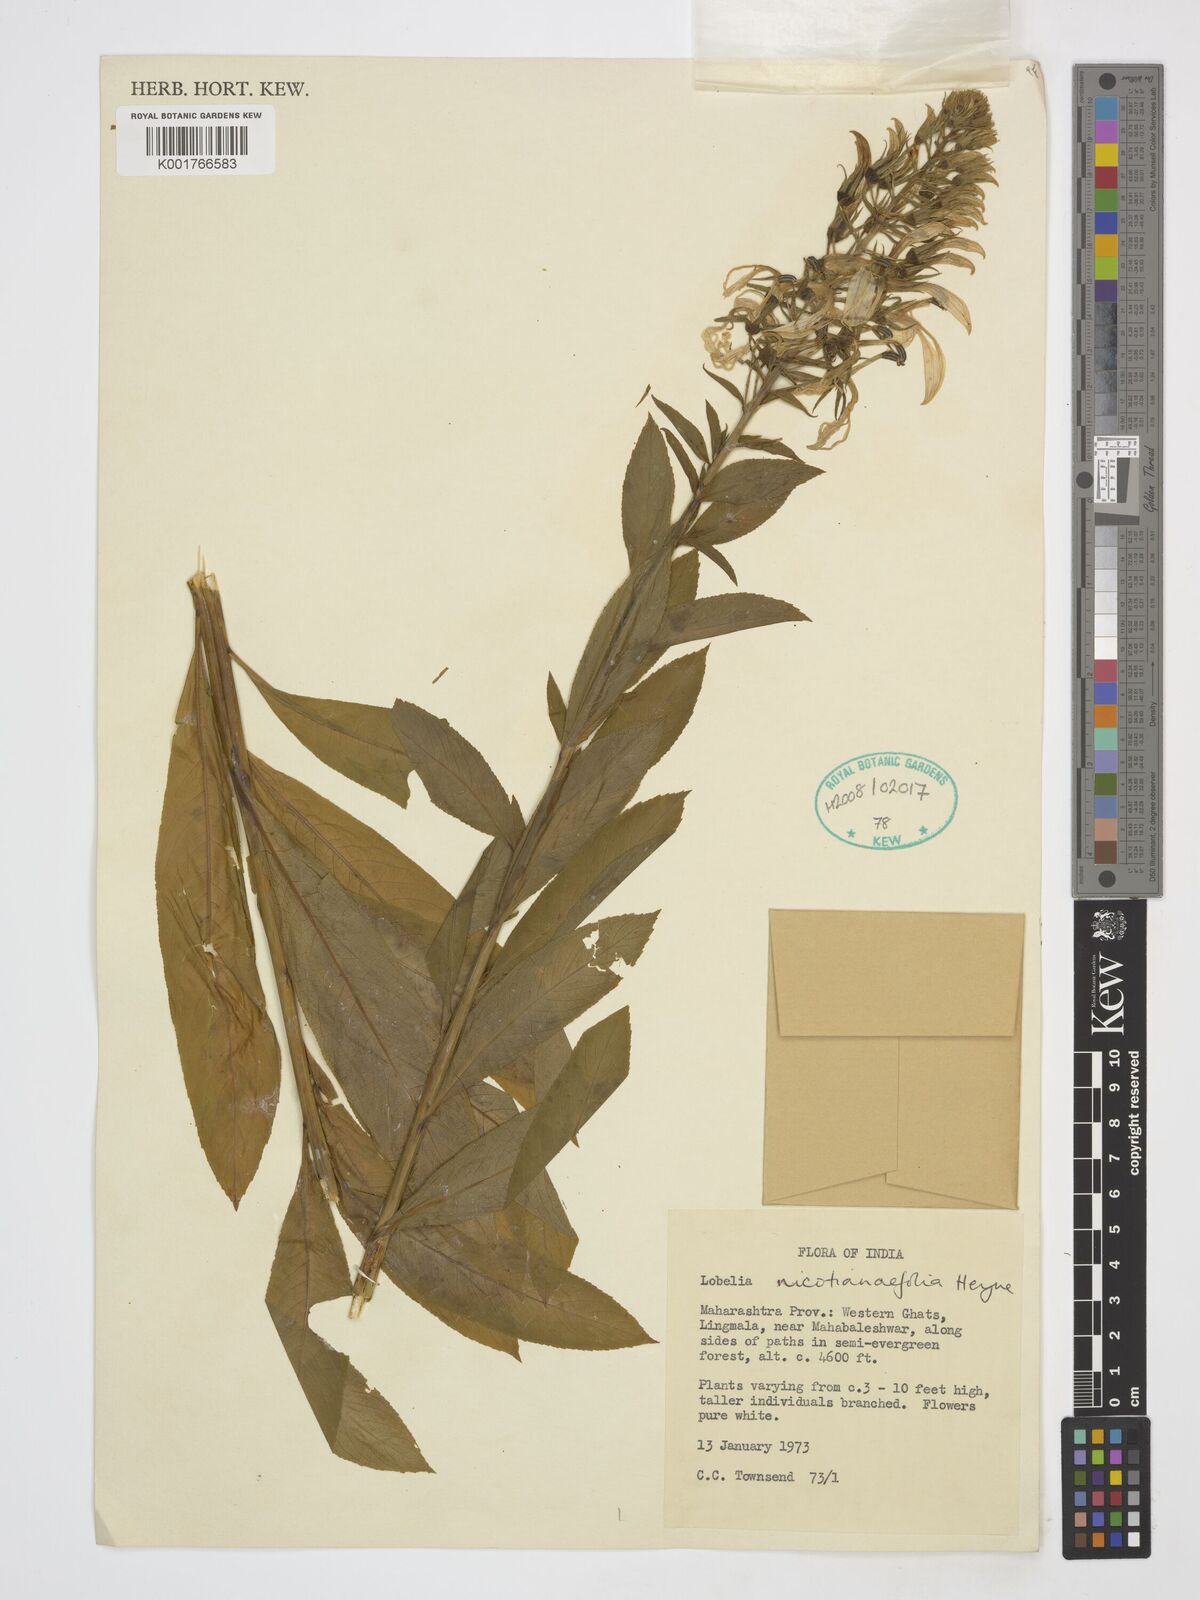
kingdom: Plantae
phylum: Tracheophyta
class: Magnoliopsida
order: Asterales
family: Campanulaceae
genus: Lobelia
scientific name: Lobelia nicotianifolia
